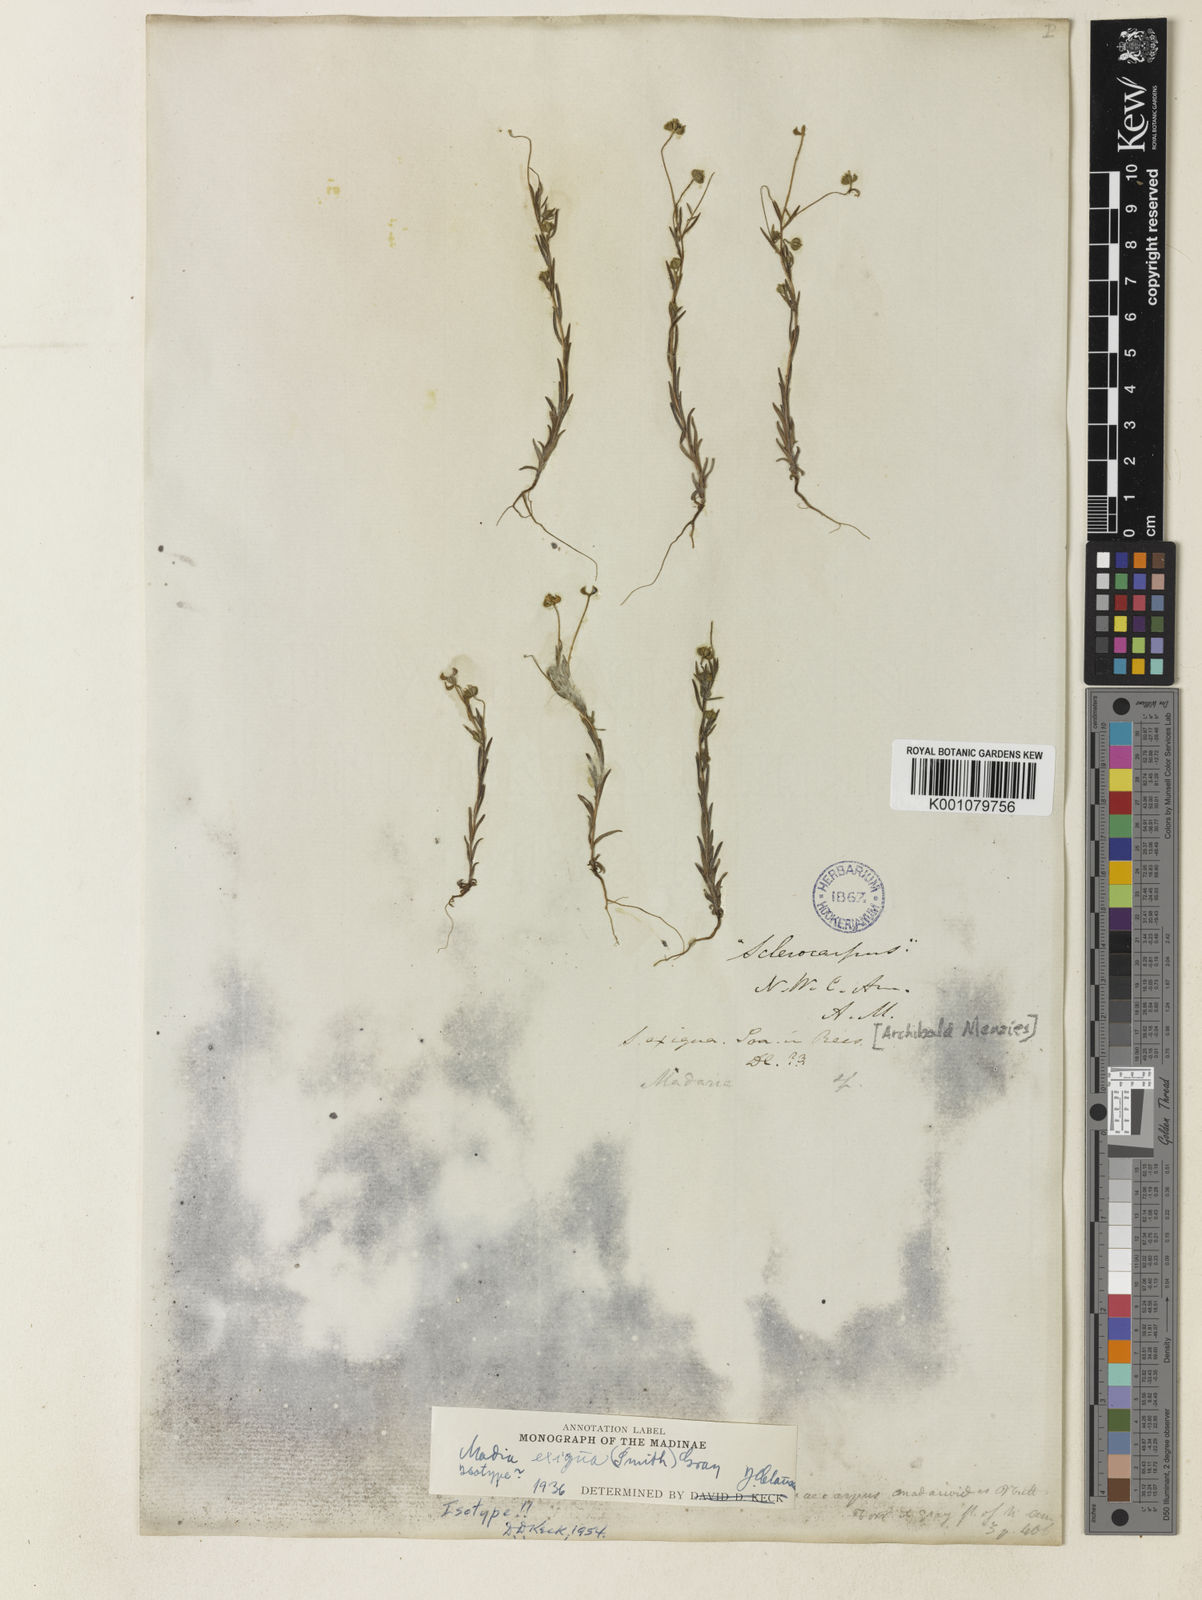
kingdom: Plantae
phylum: Tracheophyta
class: Magnoliopsida
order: Asterales
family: Asteraceae
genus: Madia
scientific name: Madia
